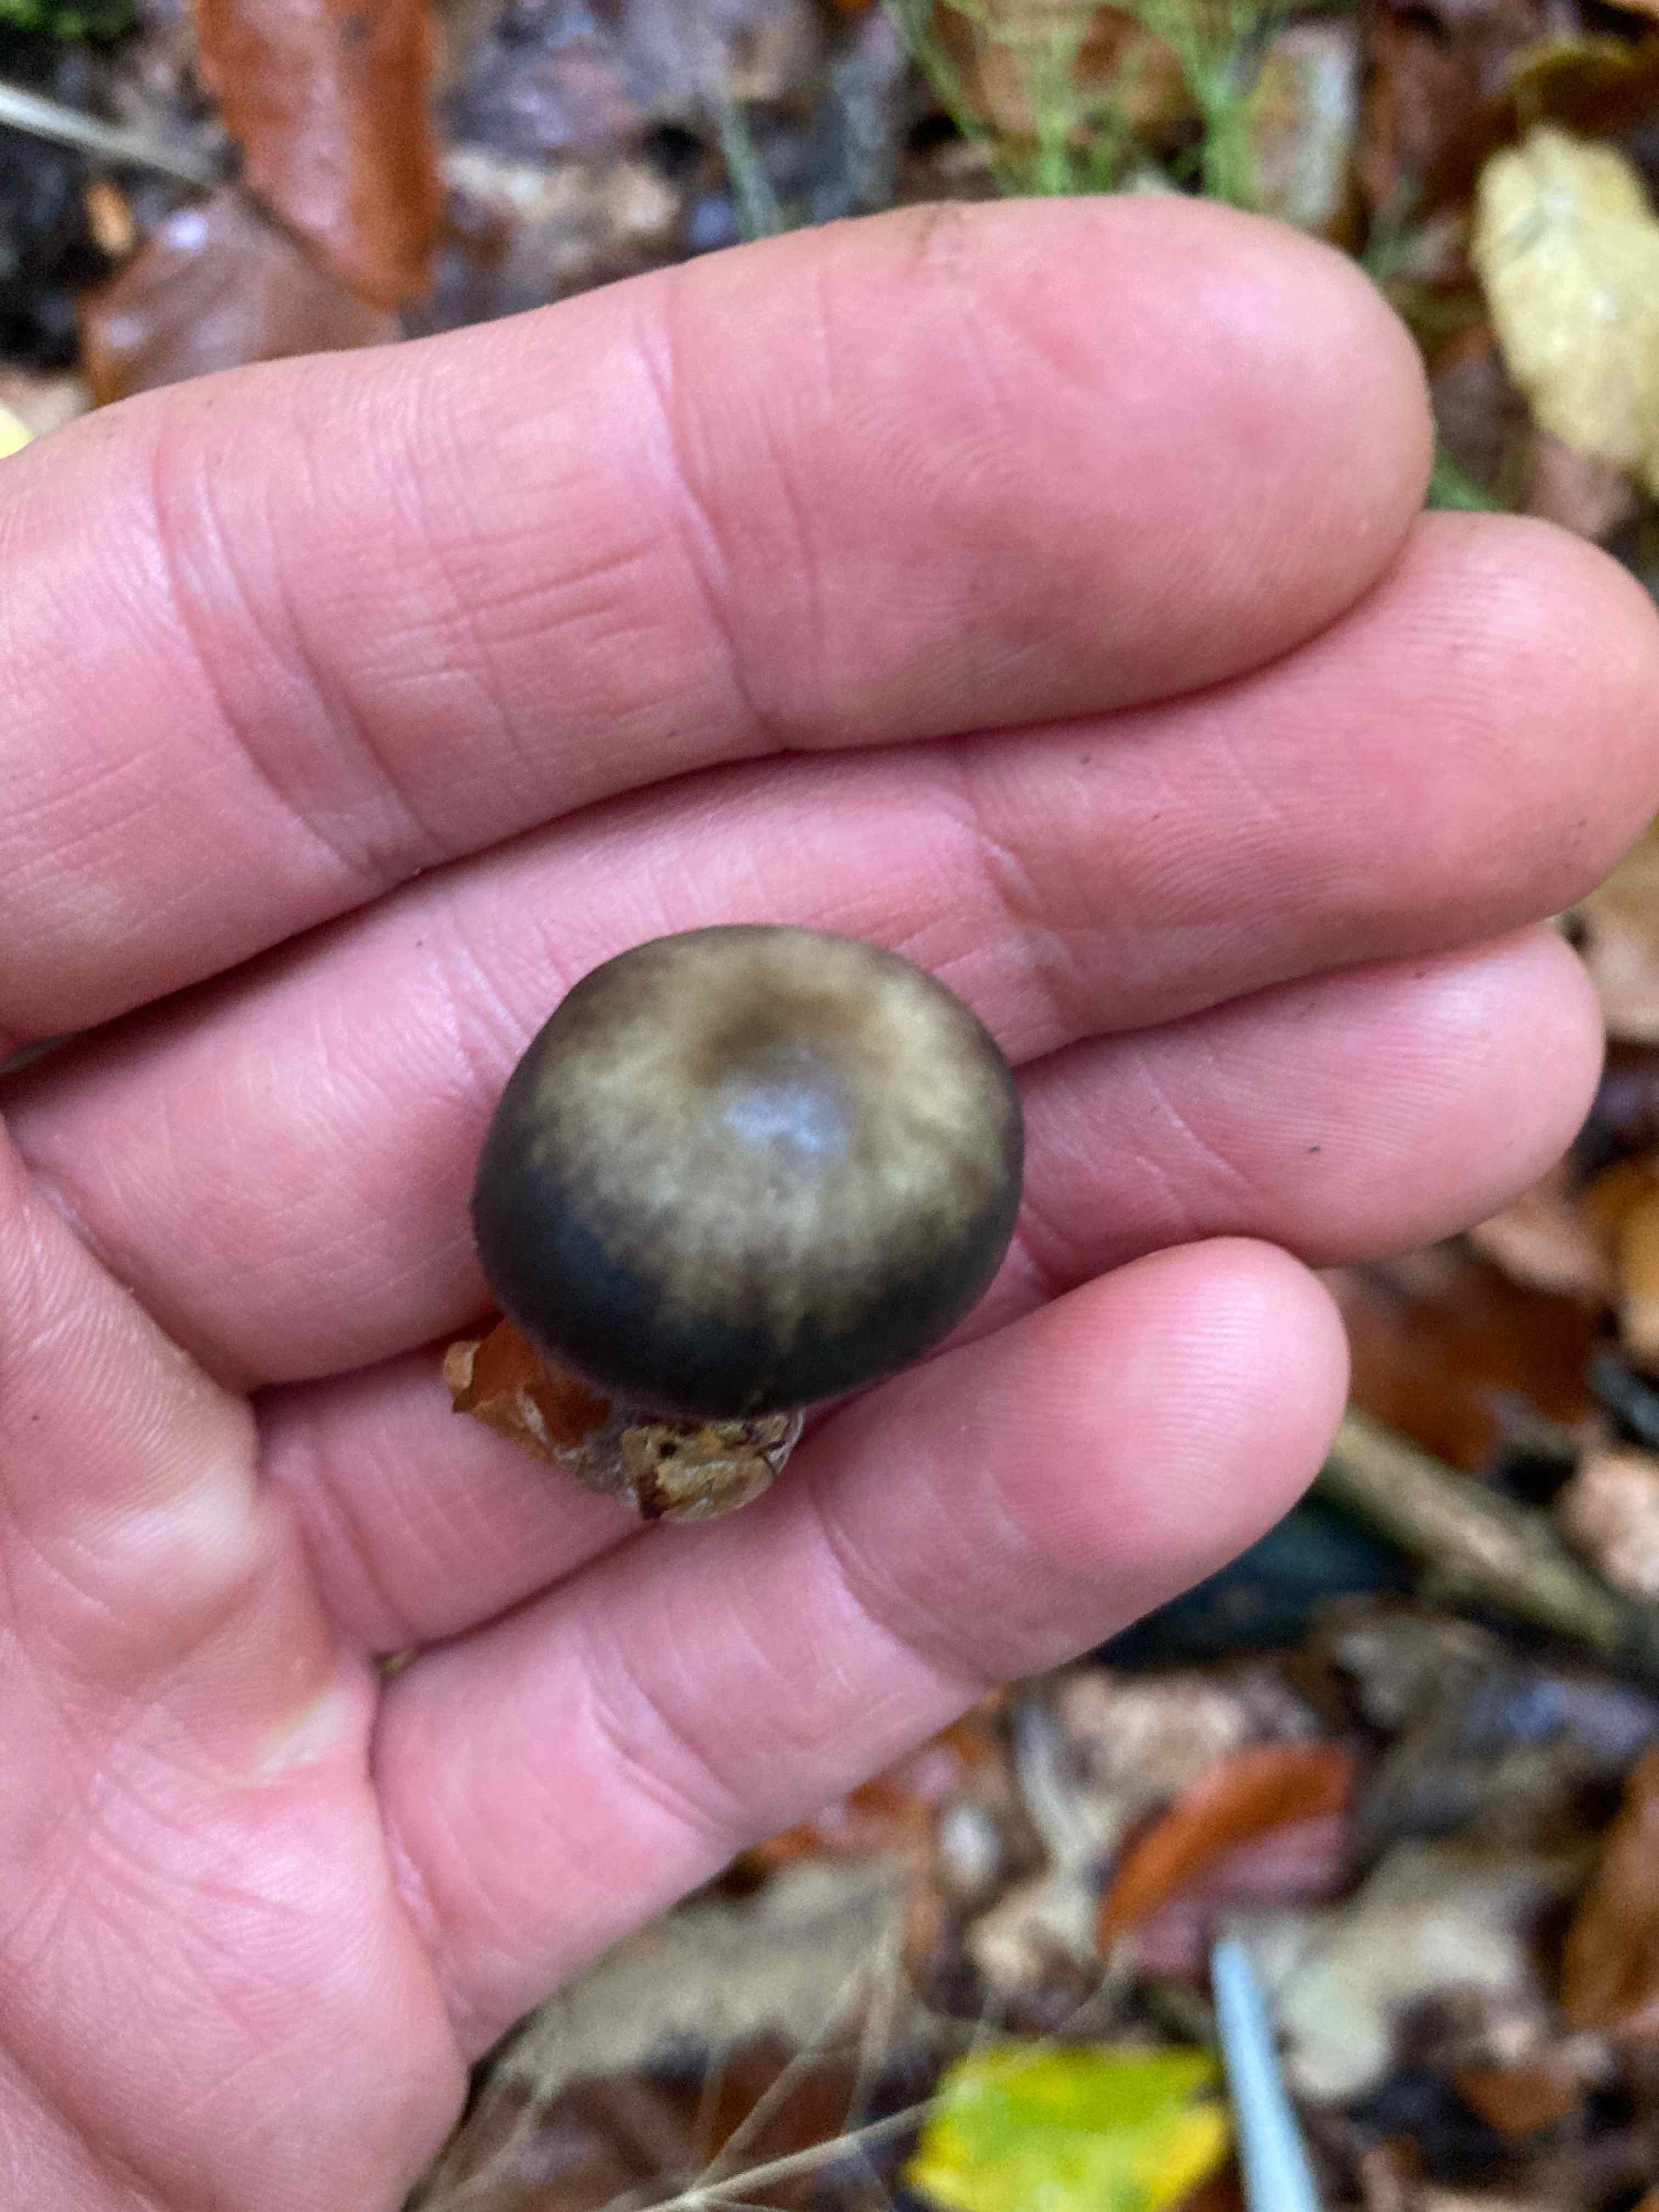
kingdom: Fungi
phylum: Basidiomycota
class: Agaricomycetes
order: Agaricales
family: Omphalotaceae
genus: Rhodocollybia
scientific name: Rhodocollybia asema
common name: horngrå fladhat
